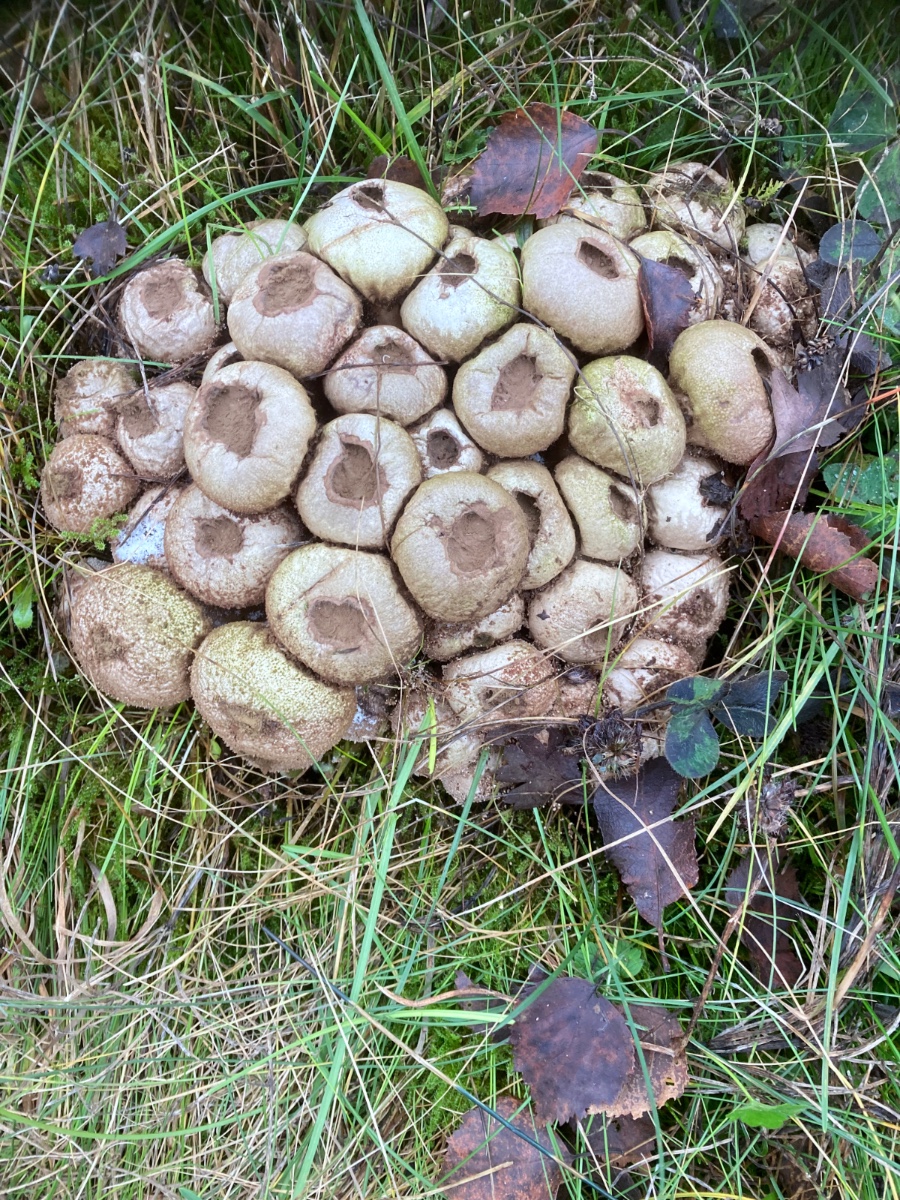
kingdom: Fungi
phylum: Basidiomycota
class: Agaricomycetes
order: Agaricales
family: Lycoperdaceae
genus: Apioperdon
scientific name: Apioperdon pyriforme
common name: pære-støvbold
